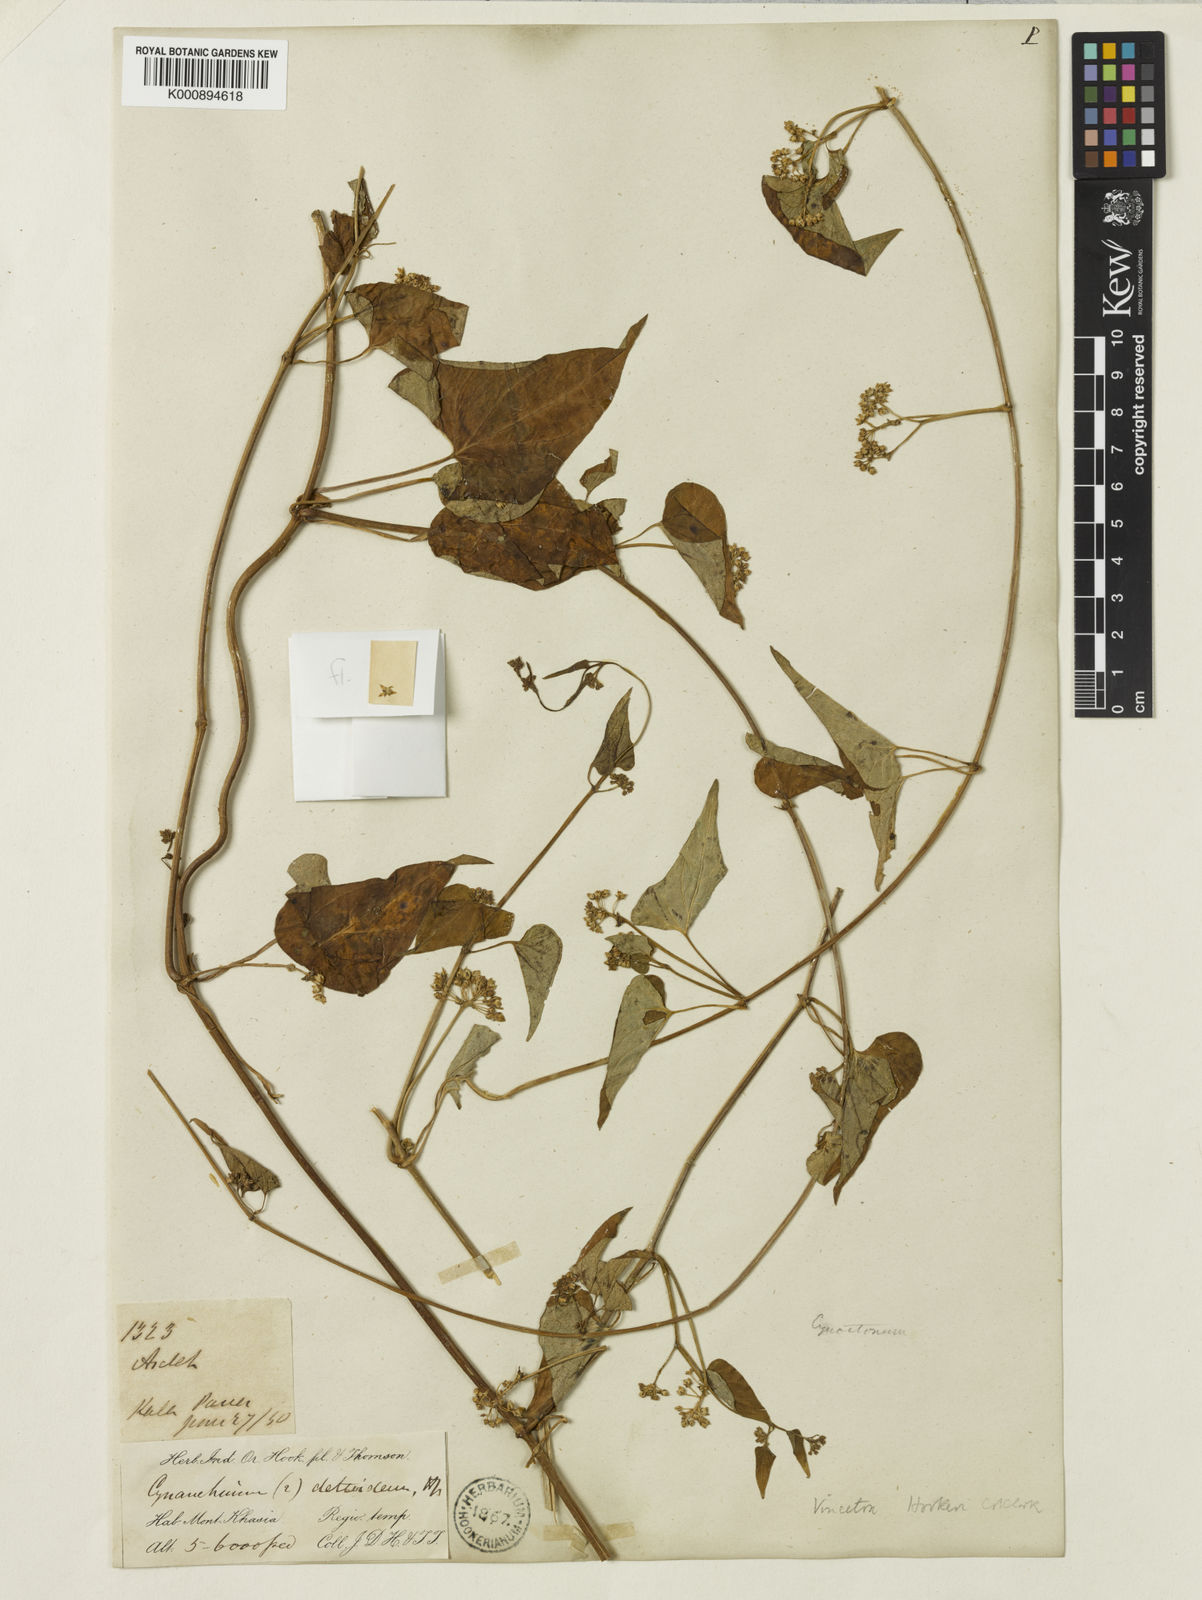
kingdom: Plantae
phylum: Tracheophyta
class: Magnoliopsida
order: Gentianales
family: Apocynaceae
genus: Vincetoxicum
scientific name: Vincetoxicum deltoideum
